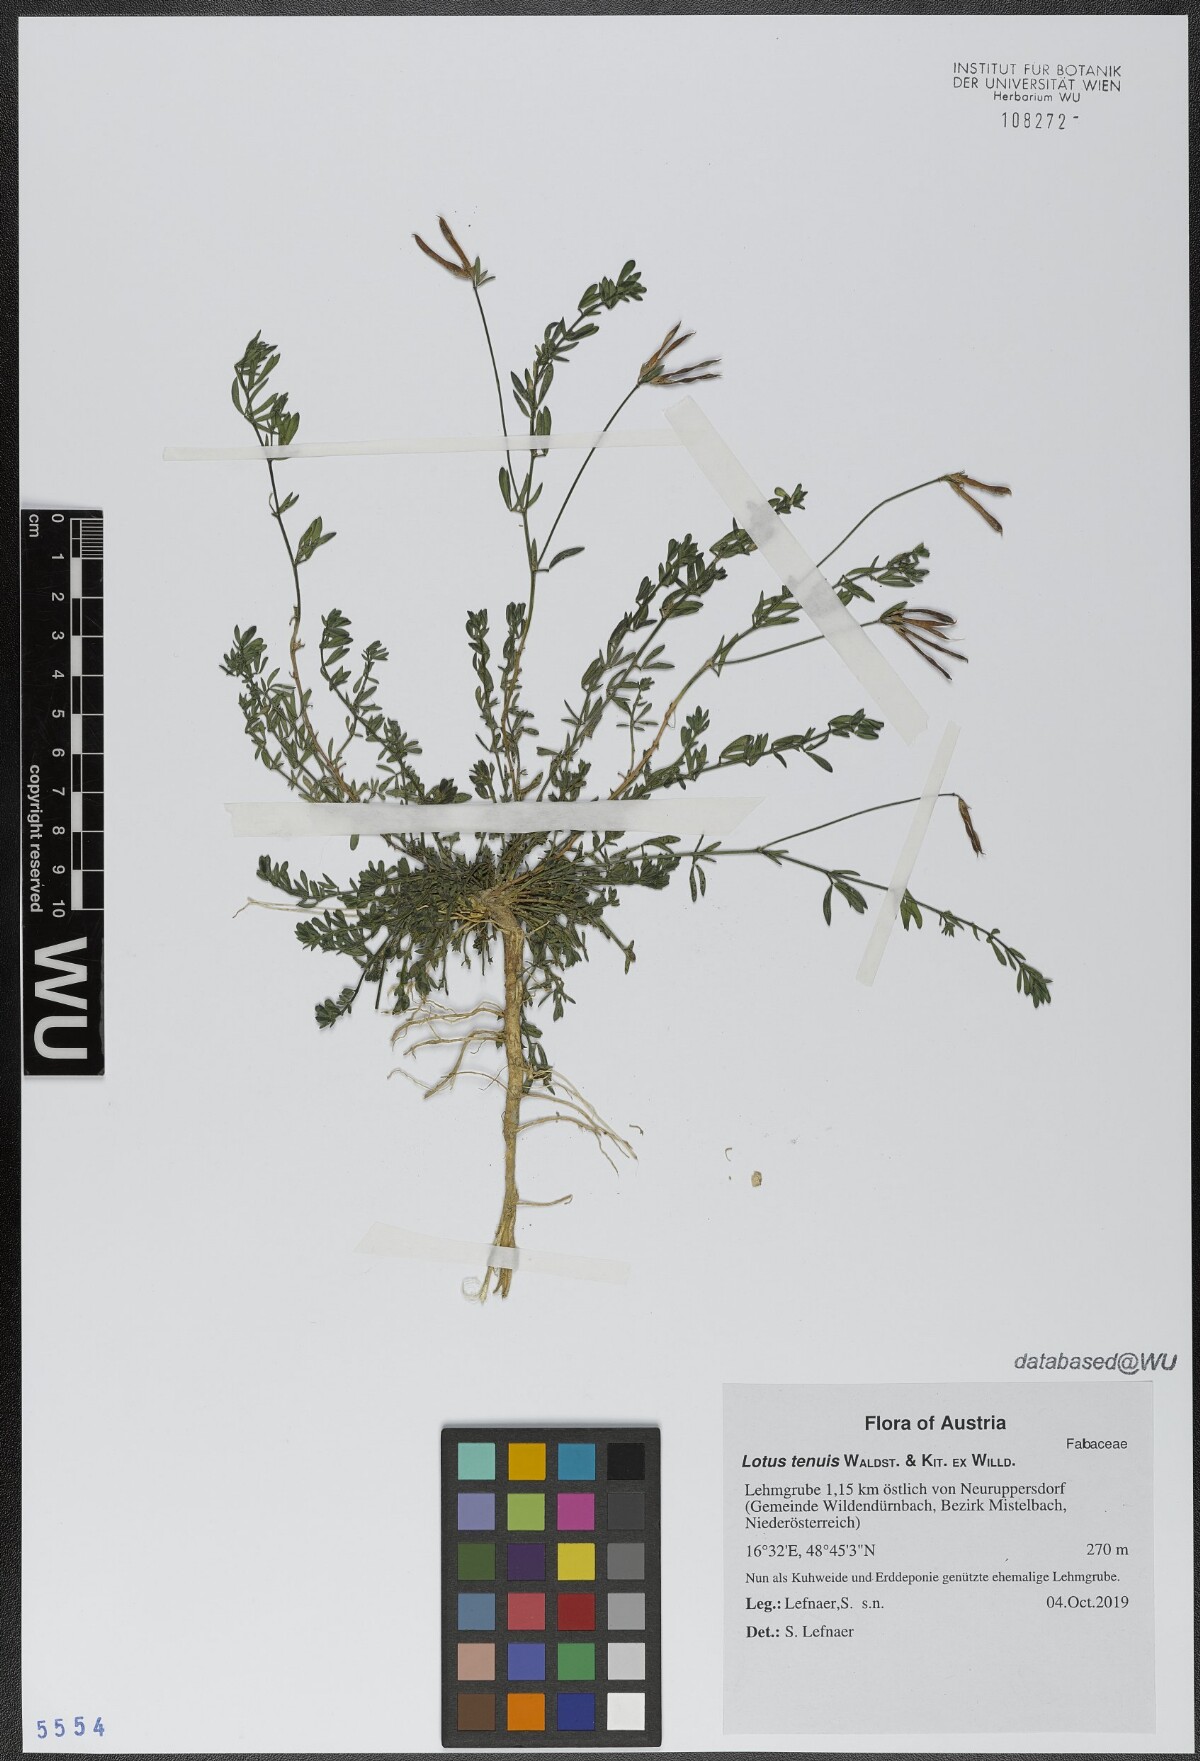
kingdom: Plantae
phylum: Tracheophyta
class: Magnoliopsida
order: Fabales
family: Fabaceae
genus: Lotus
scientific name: Lotus tenuis
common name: Narrow-leaved bird's-foot-trefoil
